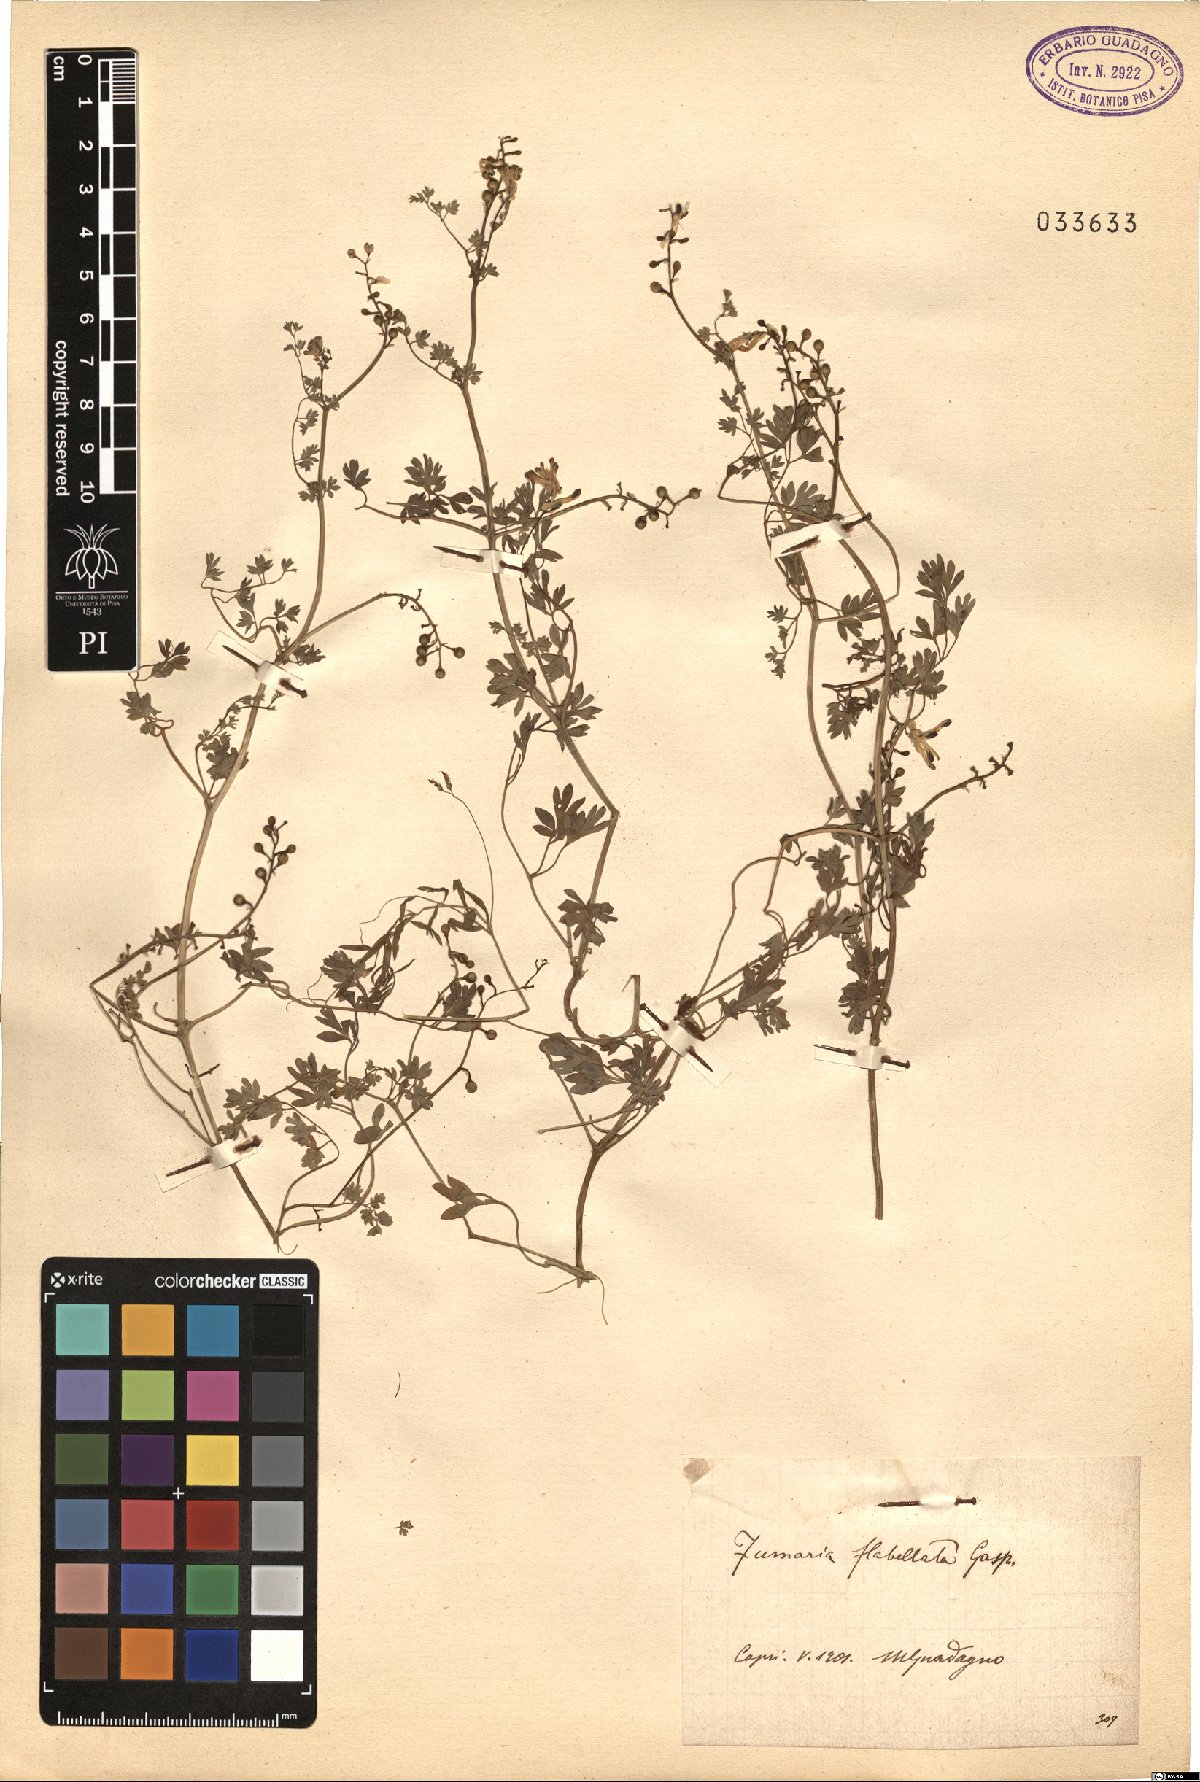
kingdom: Plantae
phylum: Tracheophyta
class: Magnoliopsida
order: Ranunculales
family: Papaveraceae
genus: Fumaria
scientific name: Fumaria flabellata
